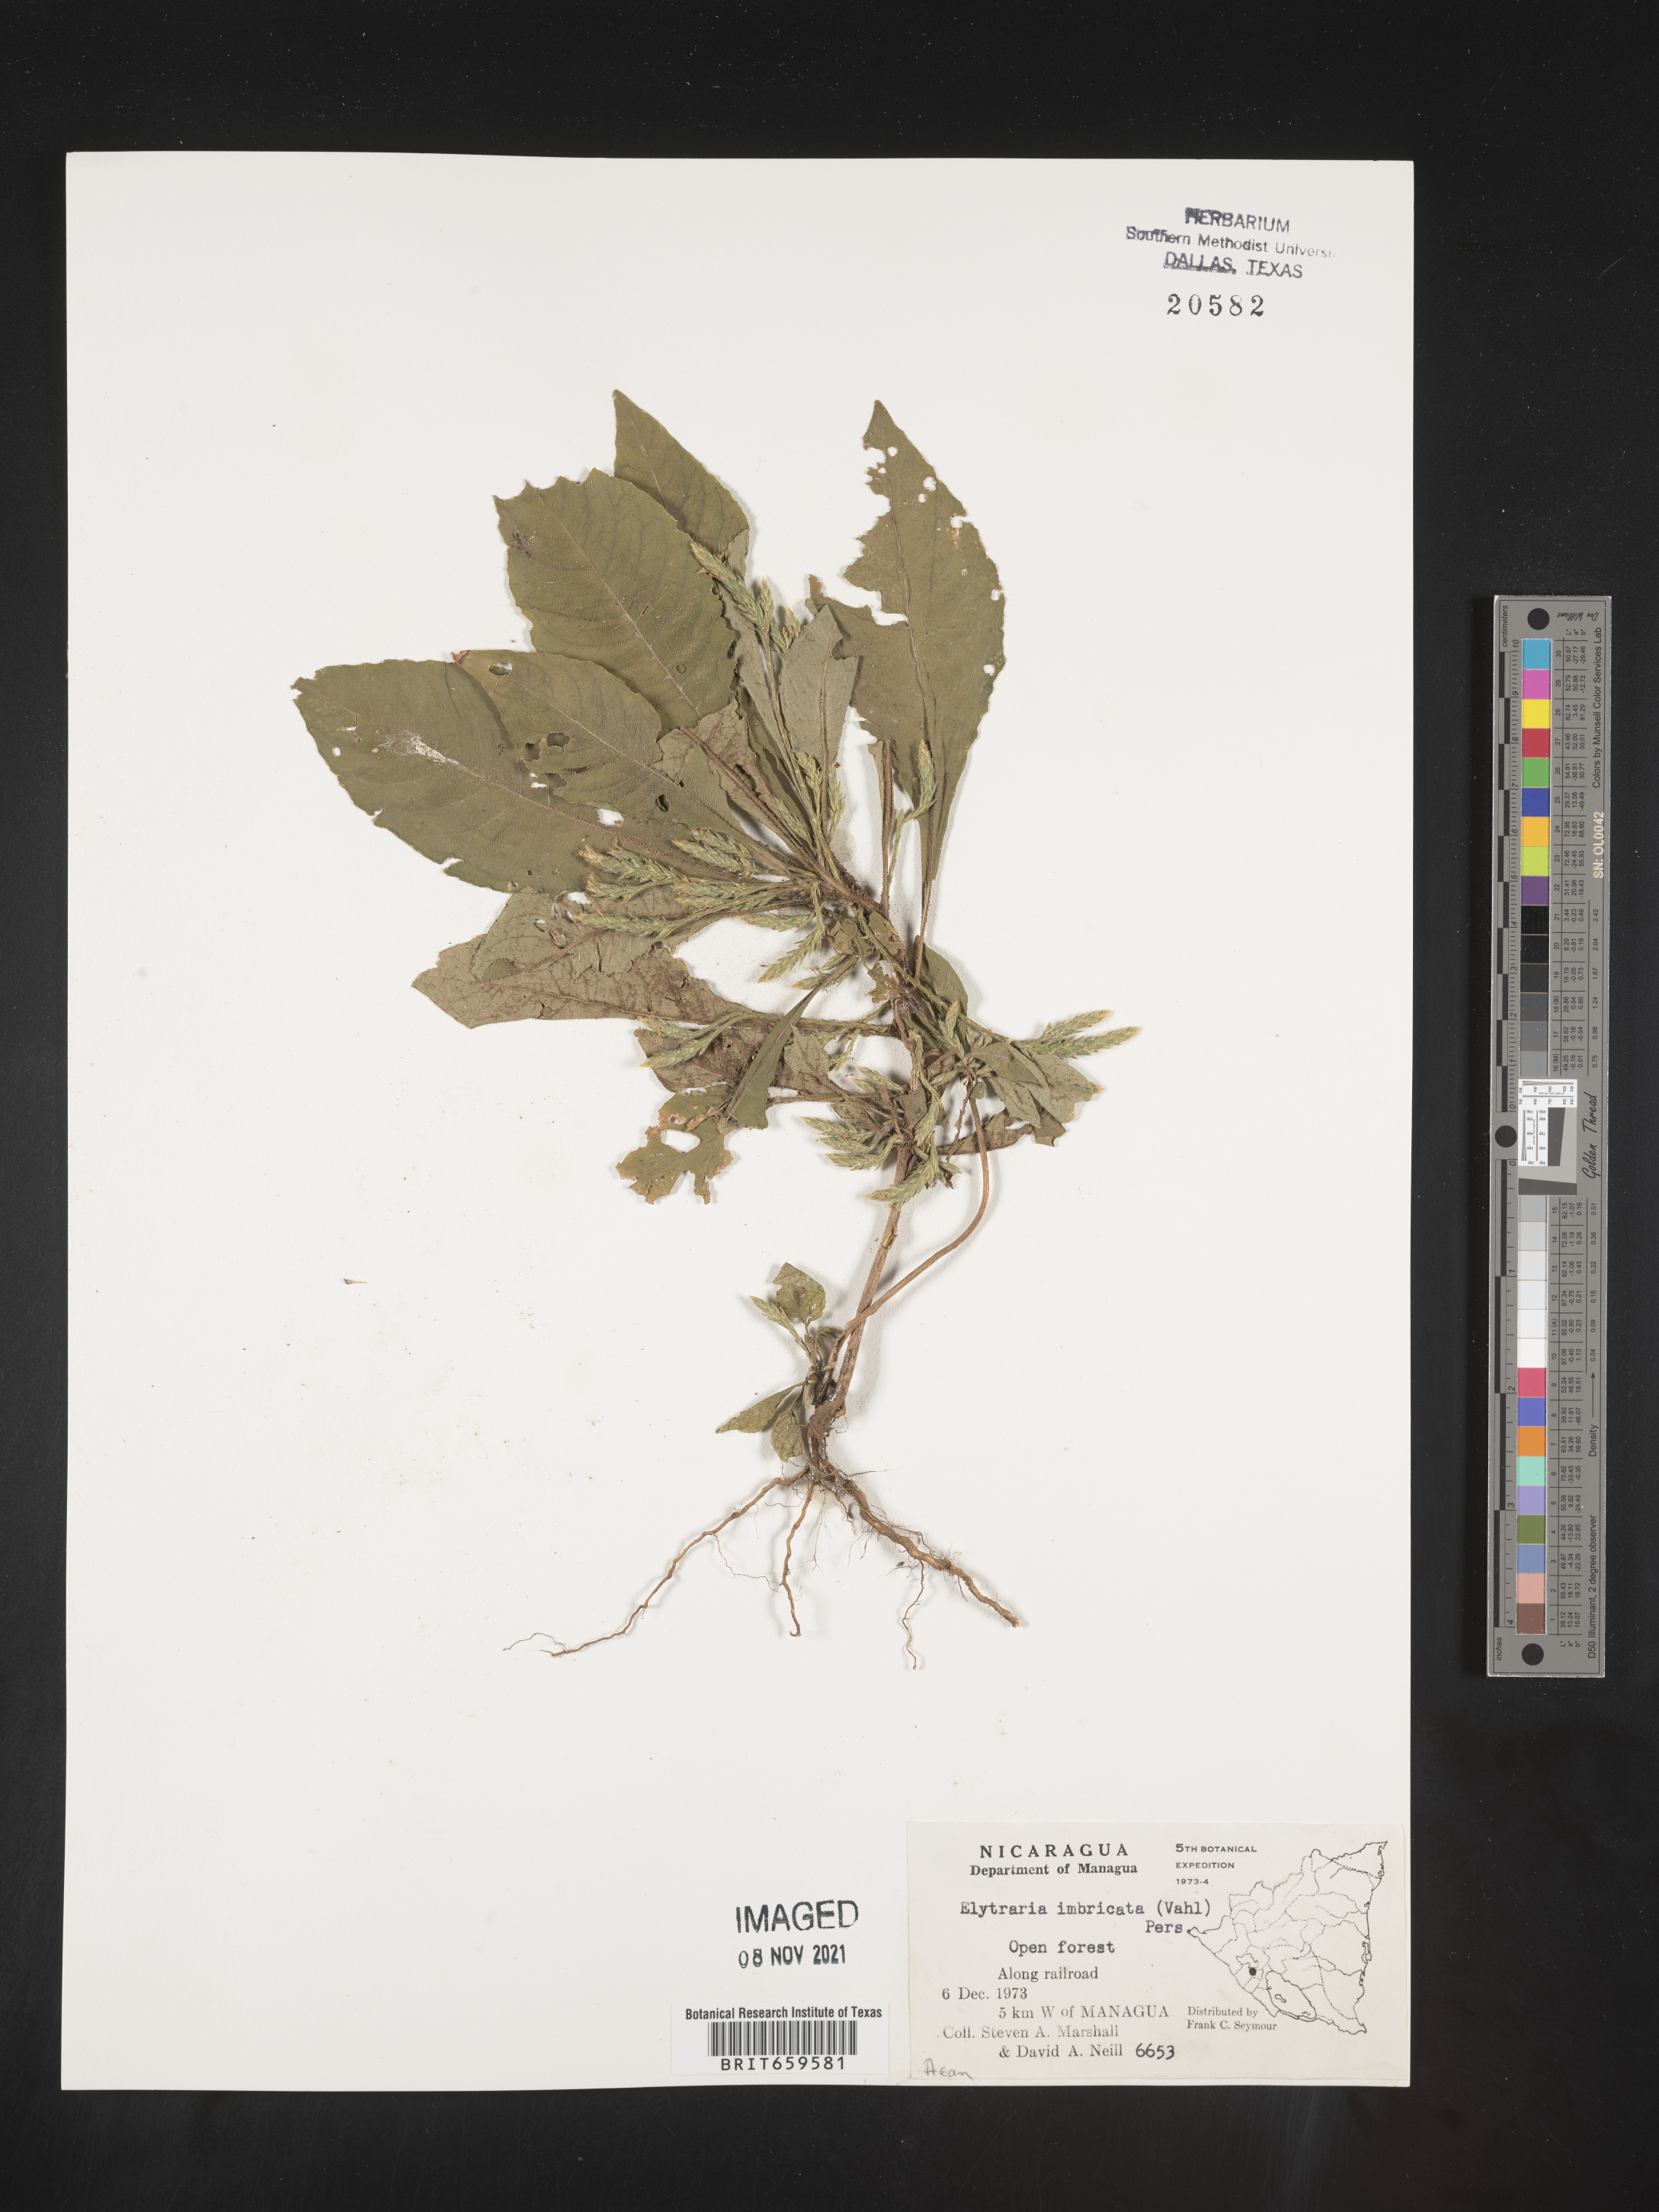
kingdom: Plantae
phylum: Tracheophyta
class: Magnoliopsida
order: Lamiales
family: Acanthaceae
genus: Elytraria
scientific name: Elytraria imbricata
